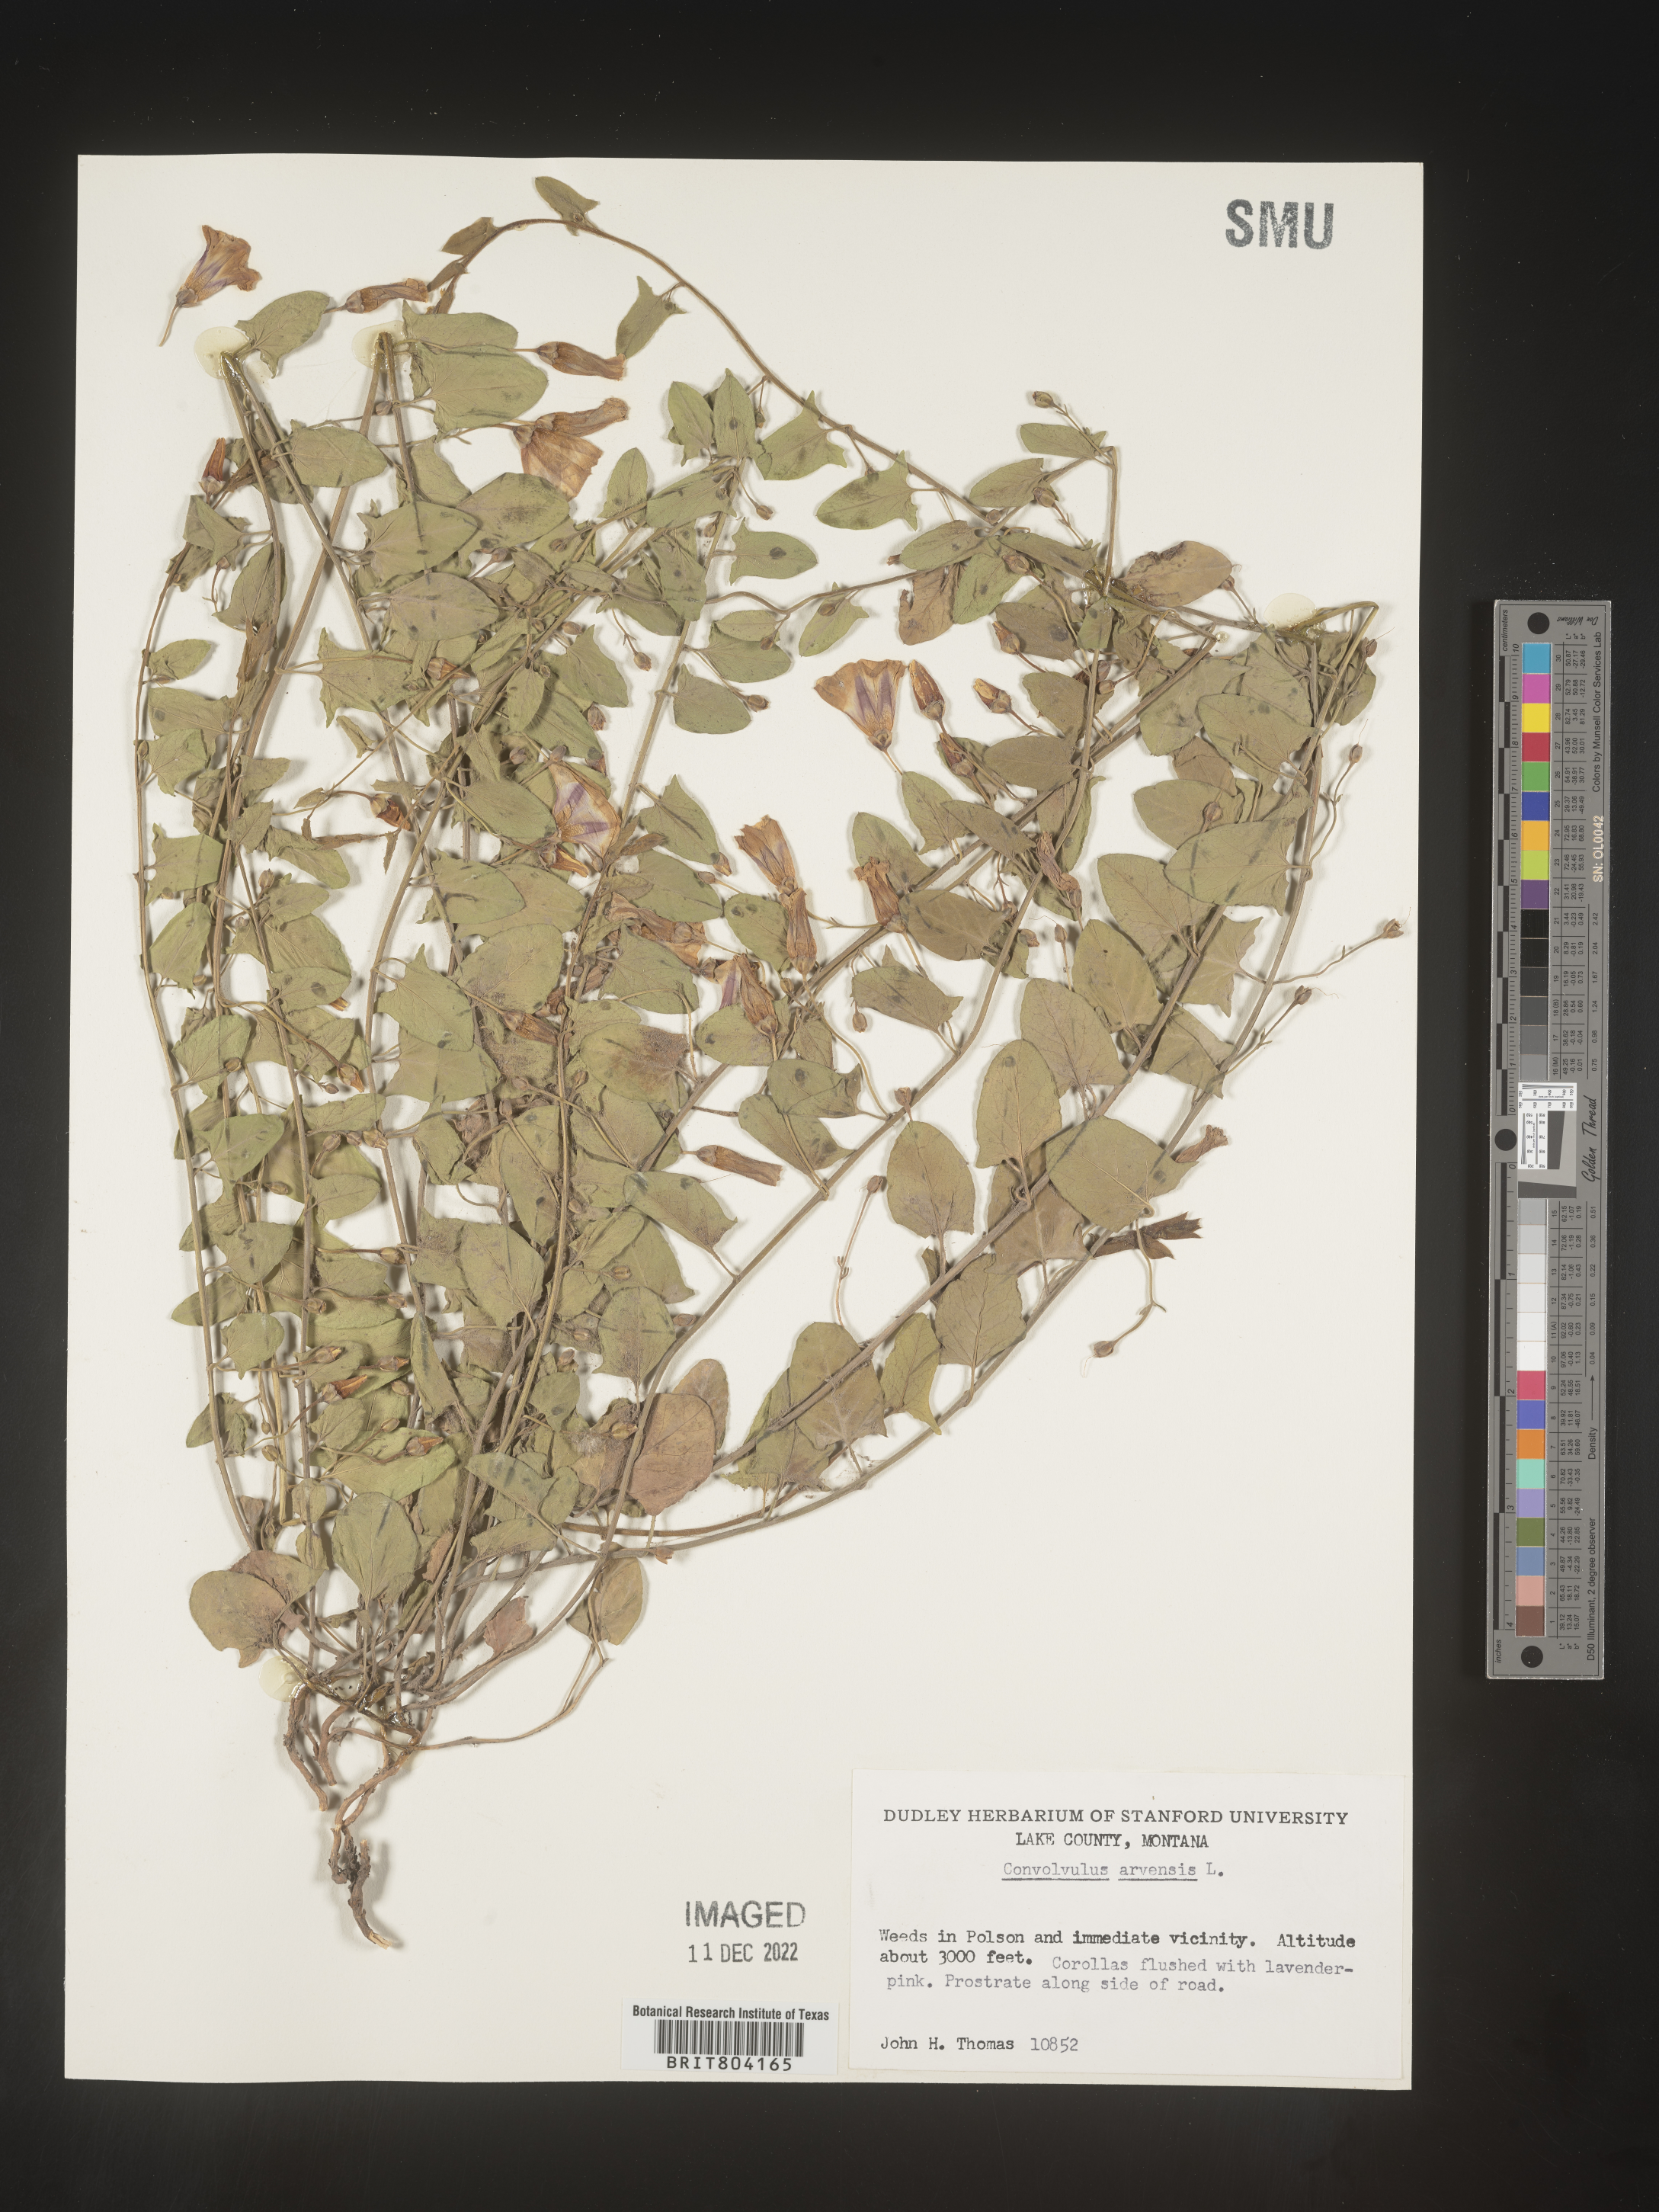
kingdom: Plantae
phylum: Tracheophyta
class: Magnoliopsida
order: Solanales
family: Convolvulaceae
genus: Convolvulus
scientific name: Convolvulus arvensis
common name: Field bindweed
